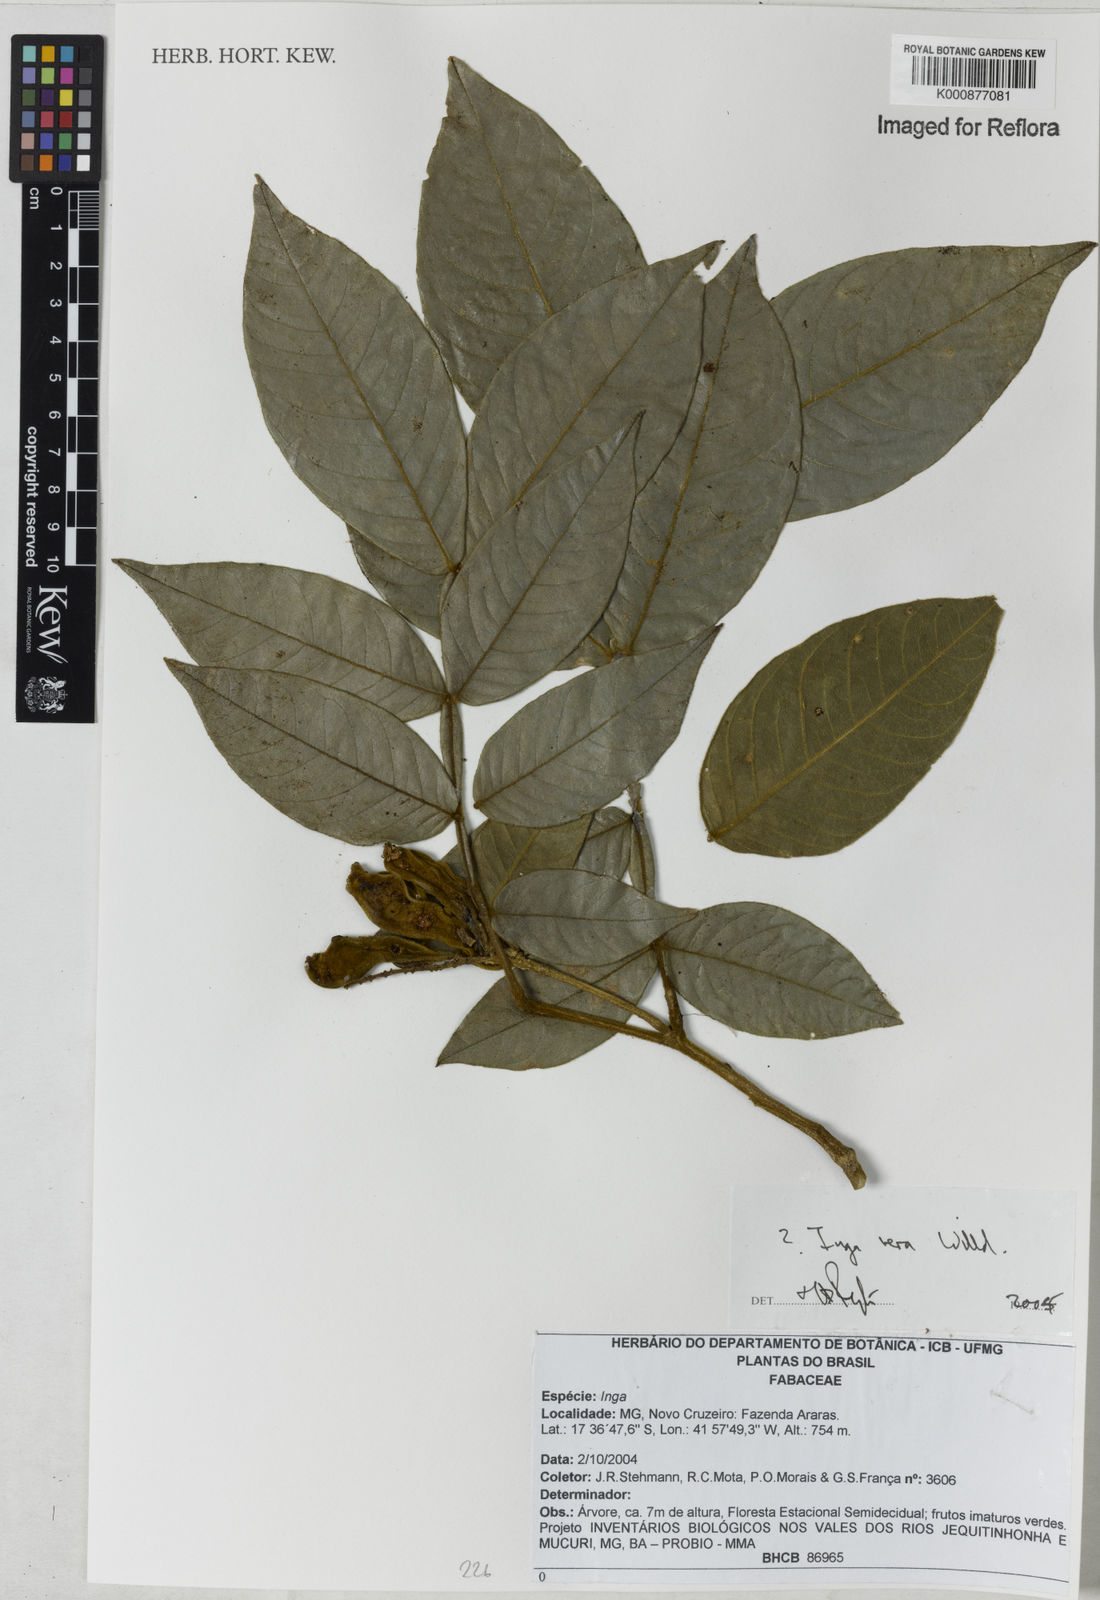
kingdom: Plantae
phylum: Tracheophyta
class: Magnoliopsida
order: Fabales
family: Fabaceae
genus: Inga
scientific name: Inga
